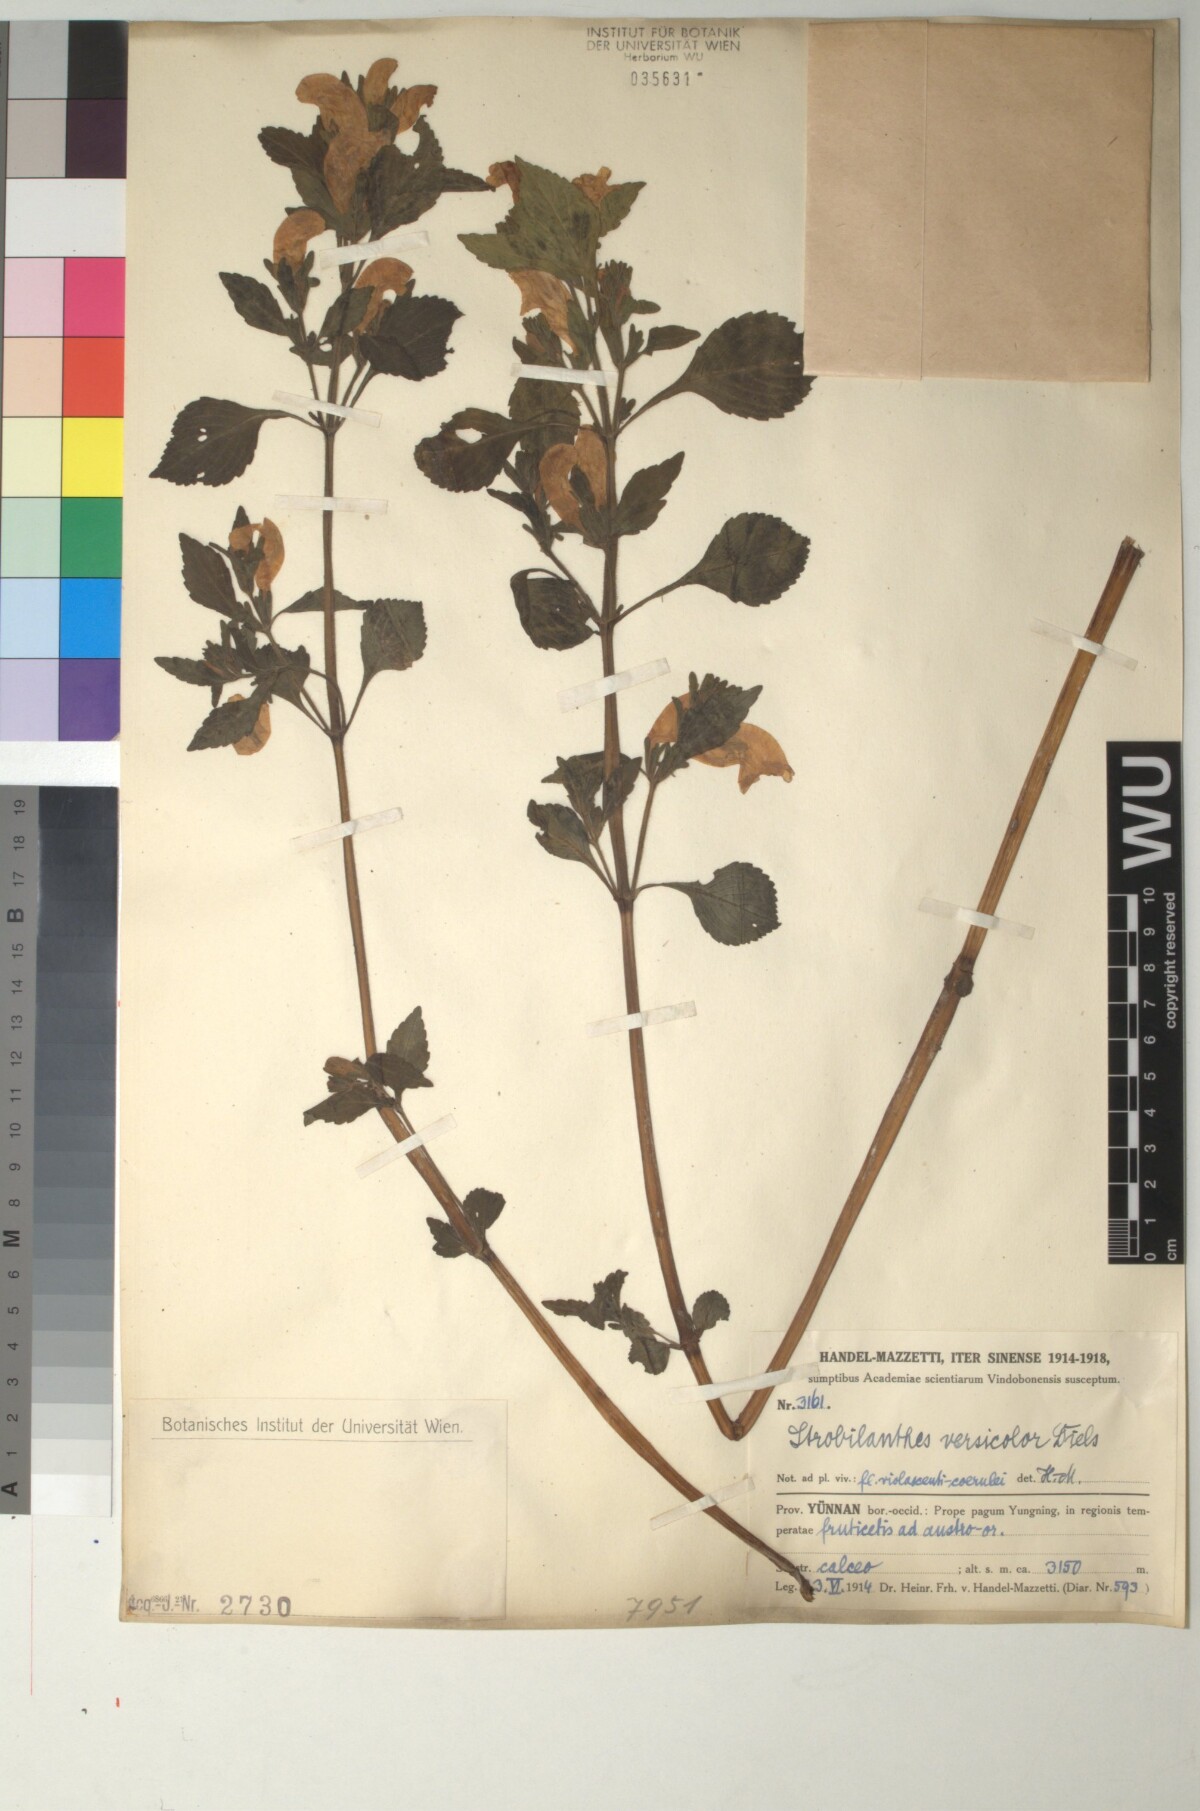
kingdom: Plantae
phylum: Tracheophyta
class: Magnoliopsida
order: Lamiales
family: Acanthaceae
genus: Strobilanthes
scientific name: Strobilanthes versicolor
